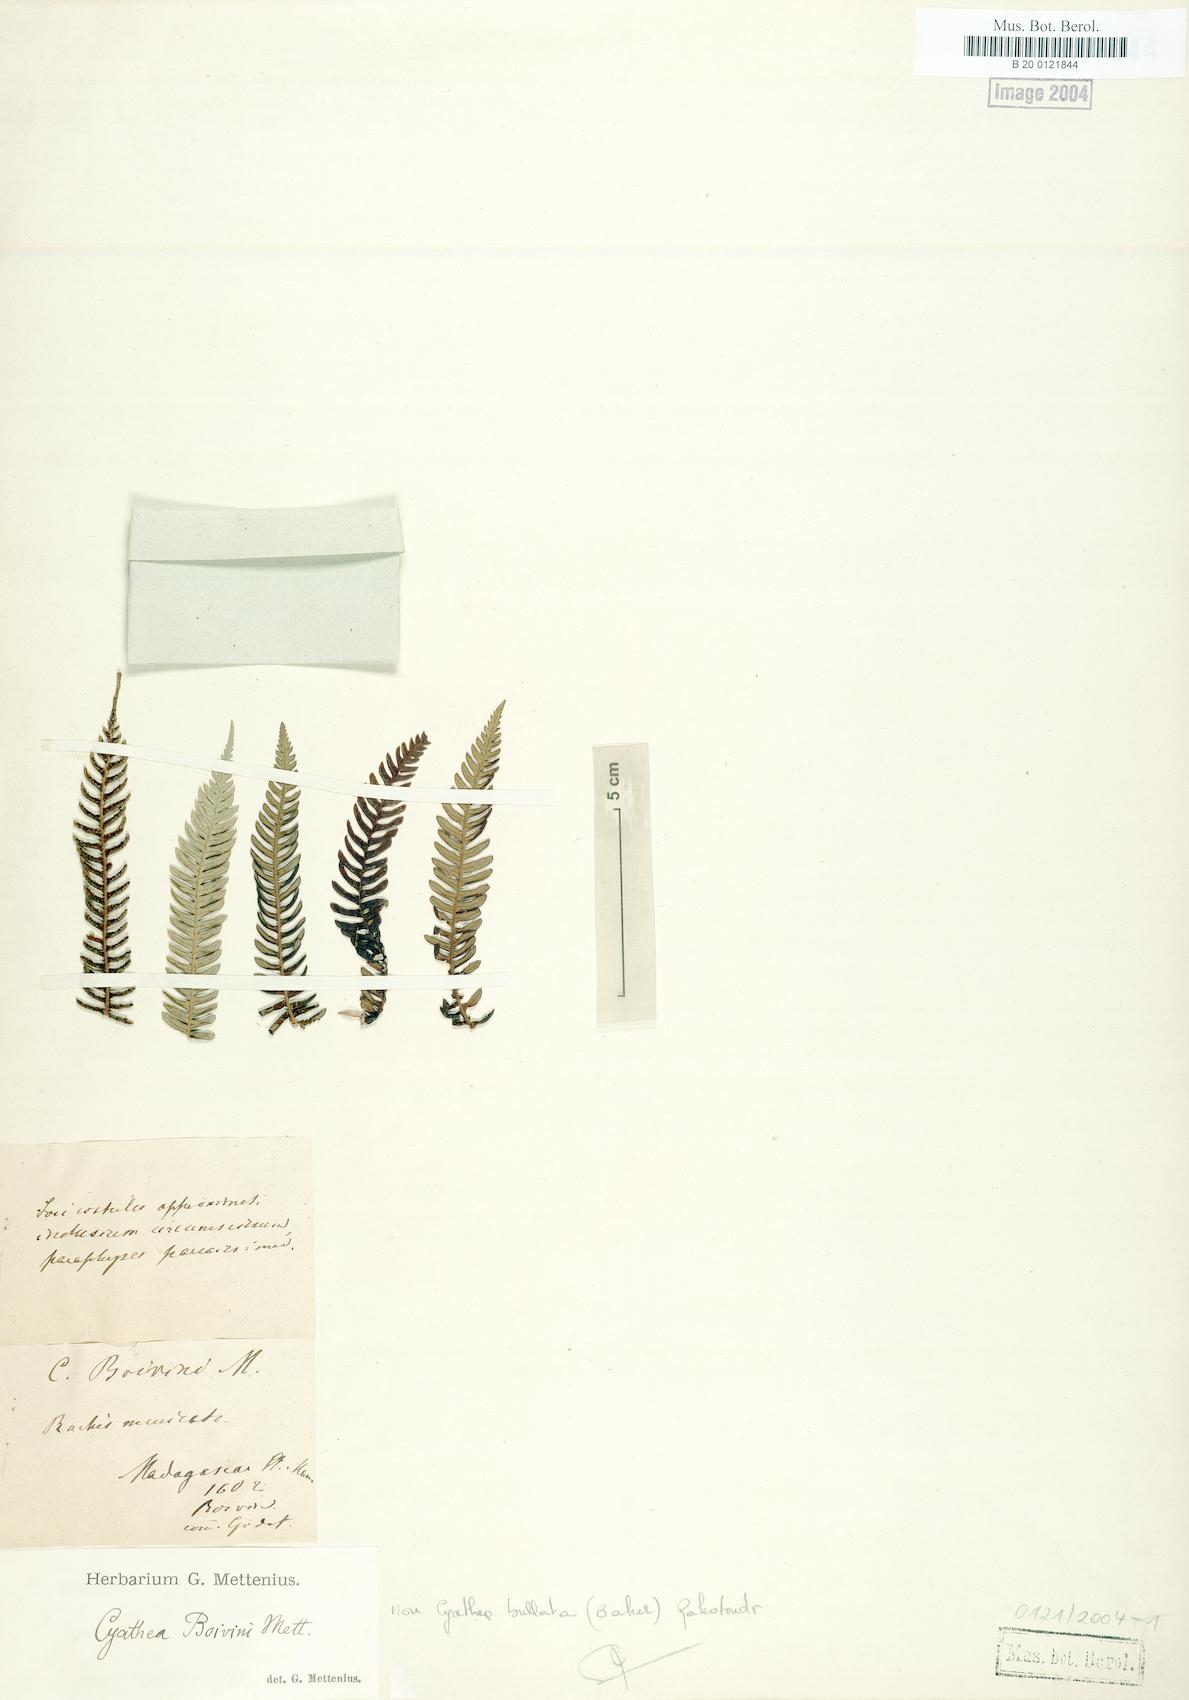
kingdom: Plantae
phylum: Tracheophyta
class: Polypodiopsida
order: Cyatheales
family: Cyatheaceae
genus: Cyathea
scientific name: Cyathea boivinii
